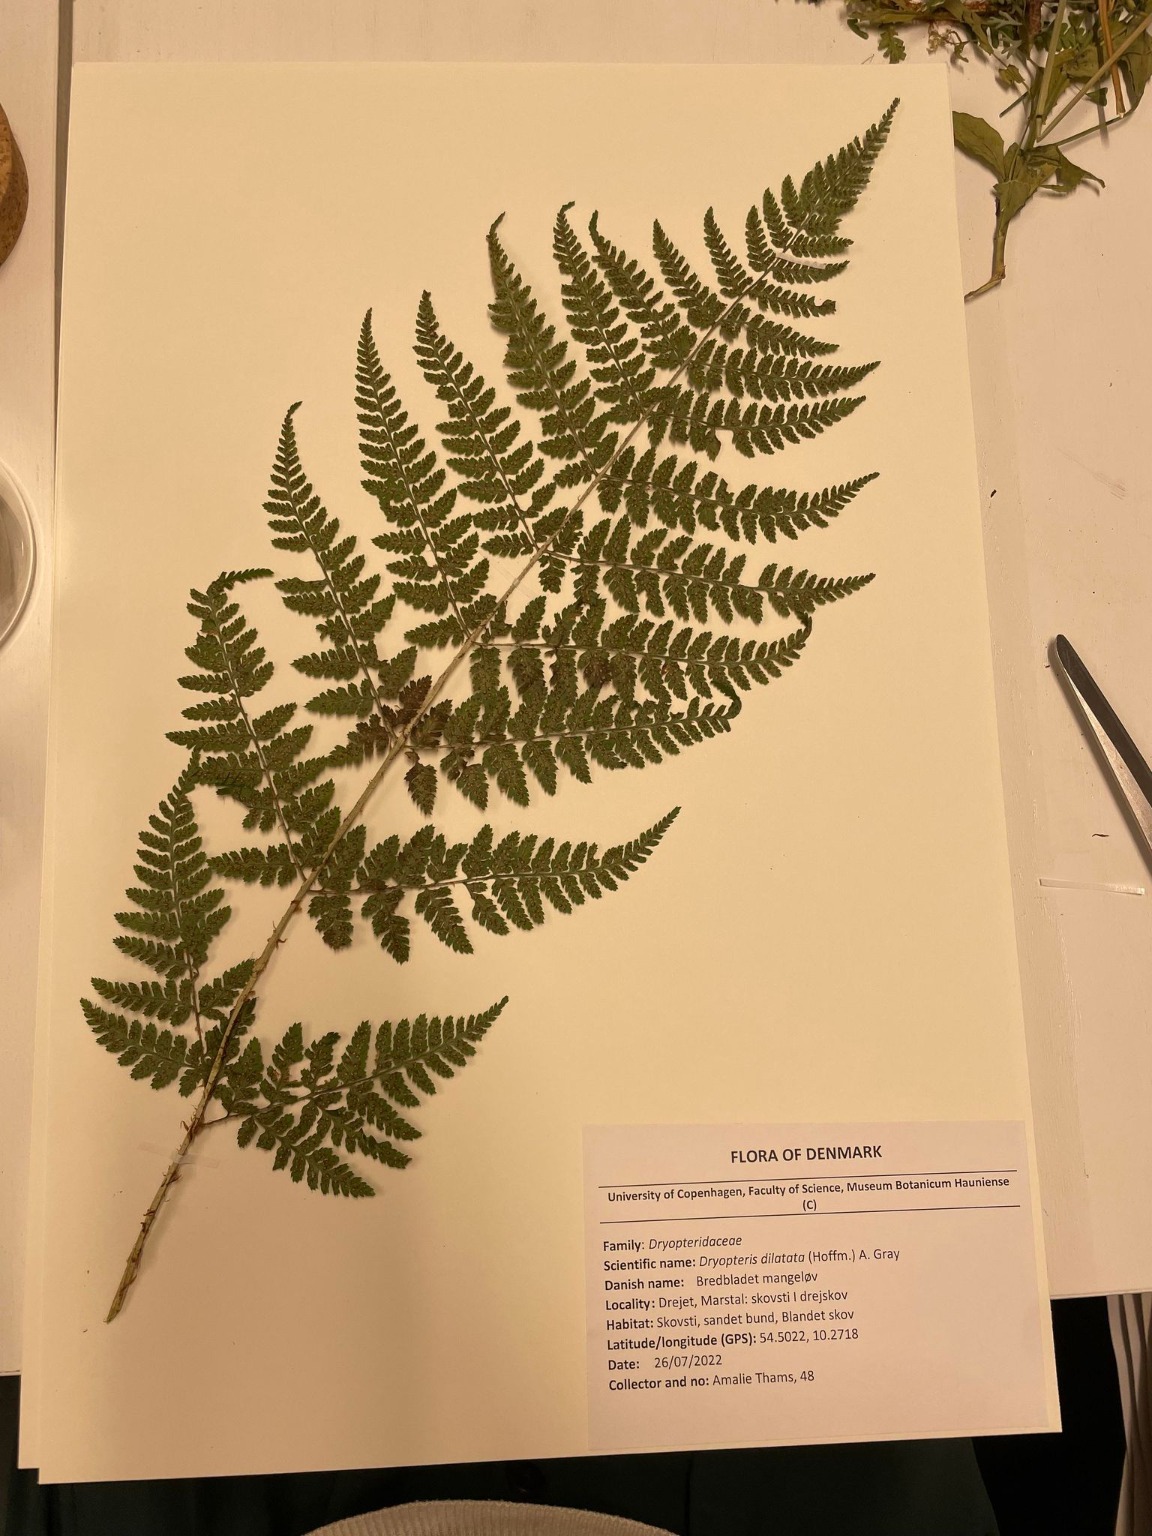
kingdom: Plantae
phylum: Tracheophyta
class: Polypodiopsida
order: Polypodiales
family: Dryopteridaceae
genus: Dryopteris
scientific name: Dryopteris dilatata
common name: Bredbladet mangeløv
